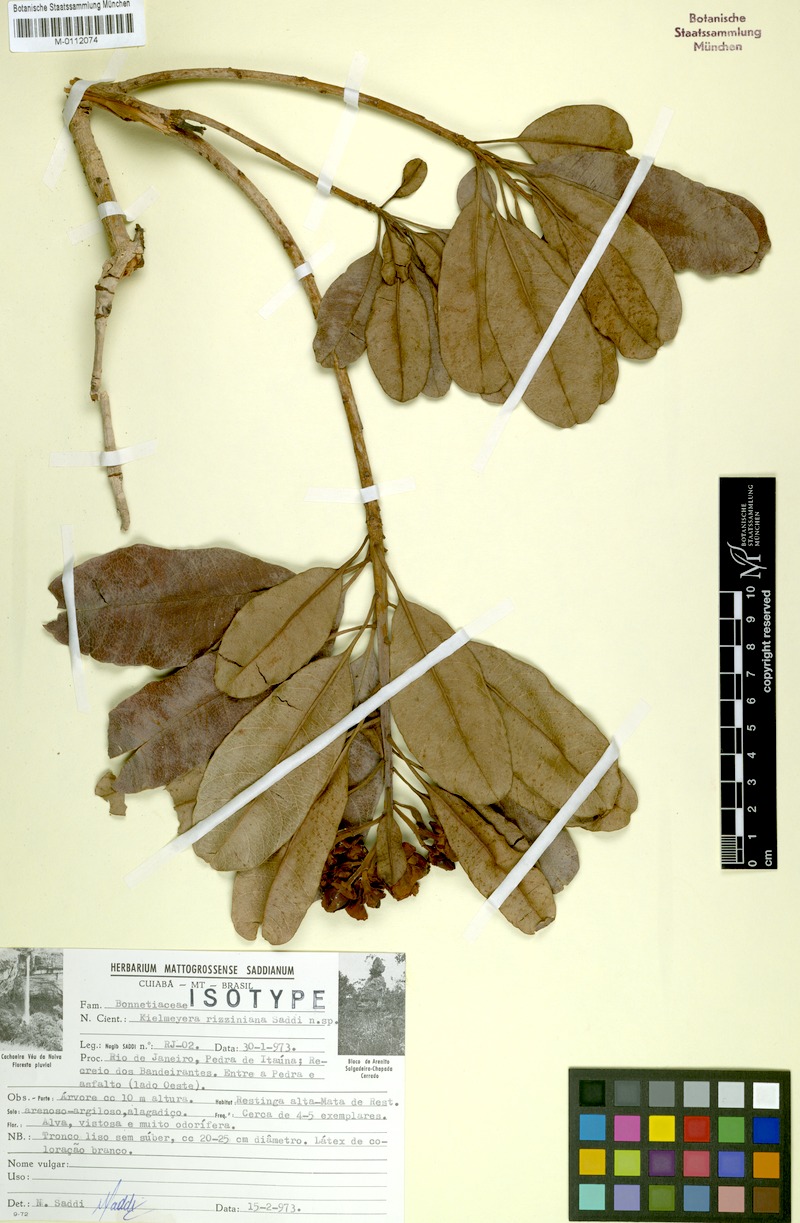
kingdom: Plantae
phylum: Tracheophyta
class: Magnoliopsida
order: Malpighiales
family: Calophyllaceae
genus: Kielmeyera
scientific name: Kielmeyera rizziniana
